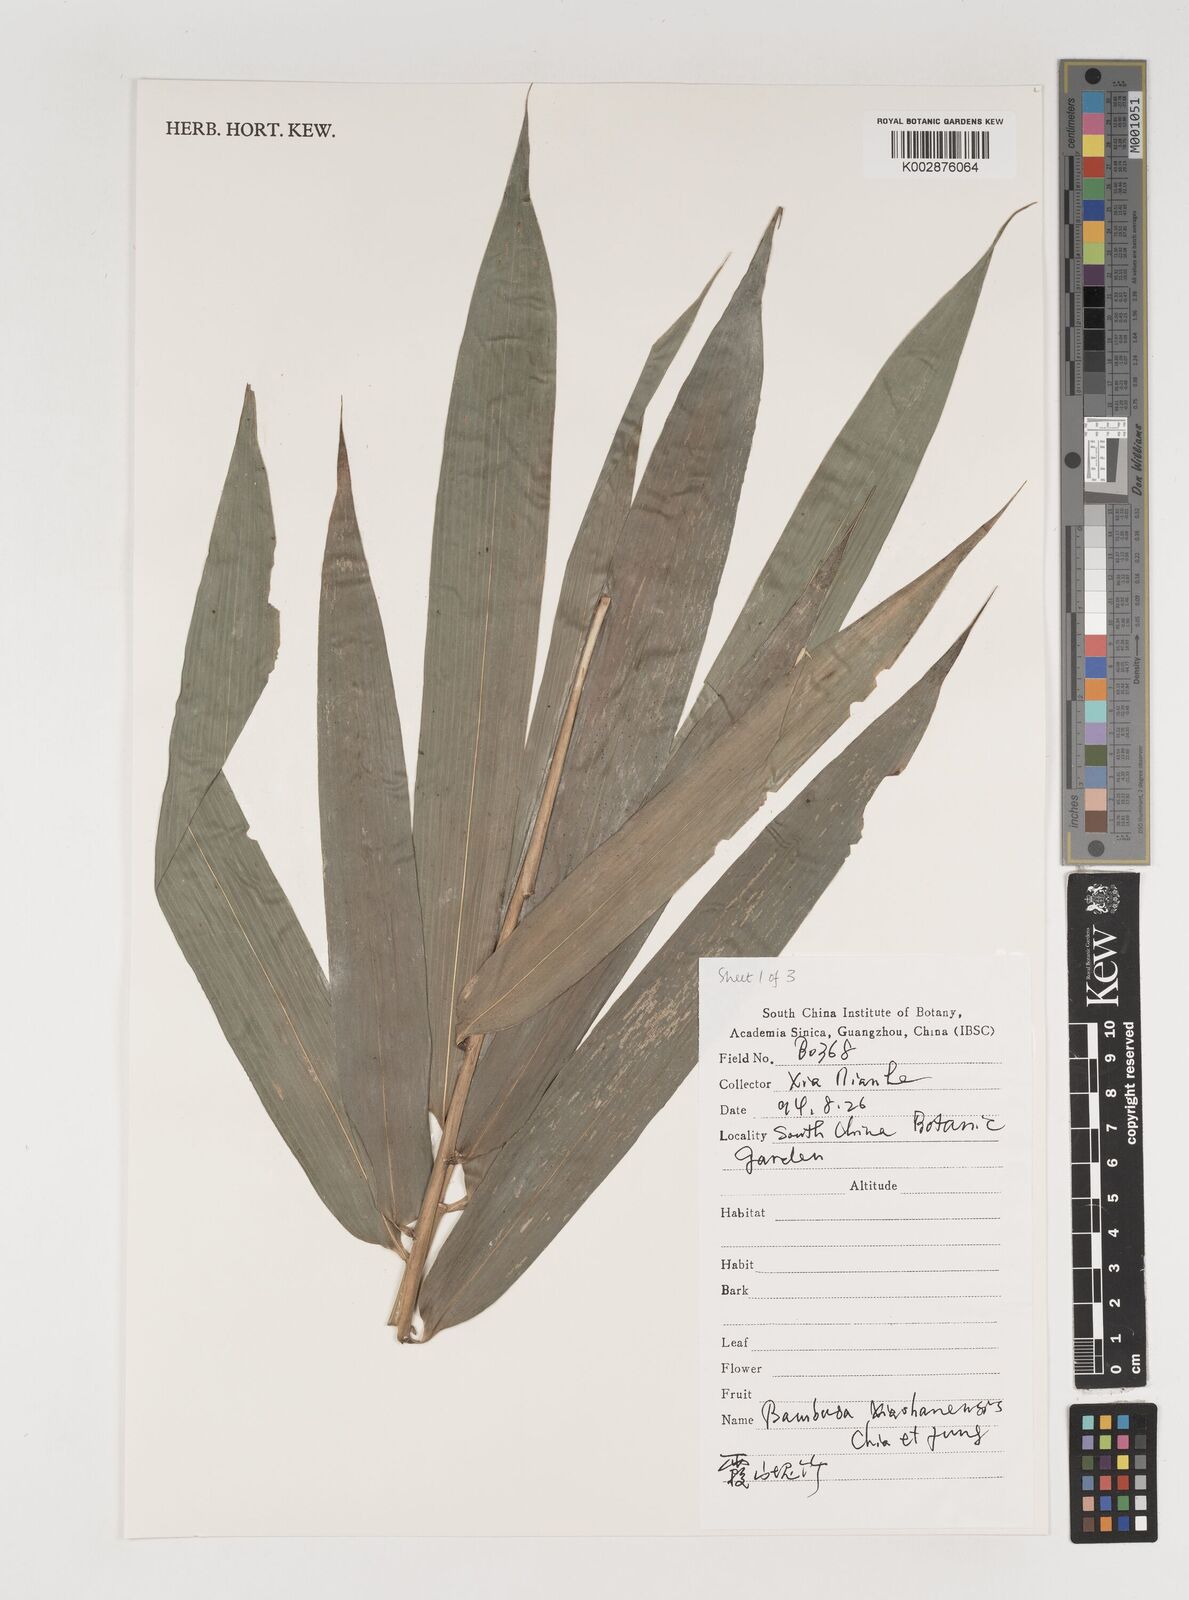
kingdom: Plantae
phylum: Tracheophyta
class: Liliopsida
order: Poales
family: Poaceae
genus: Bambusa
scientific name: Bambusa xiashanensis
